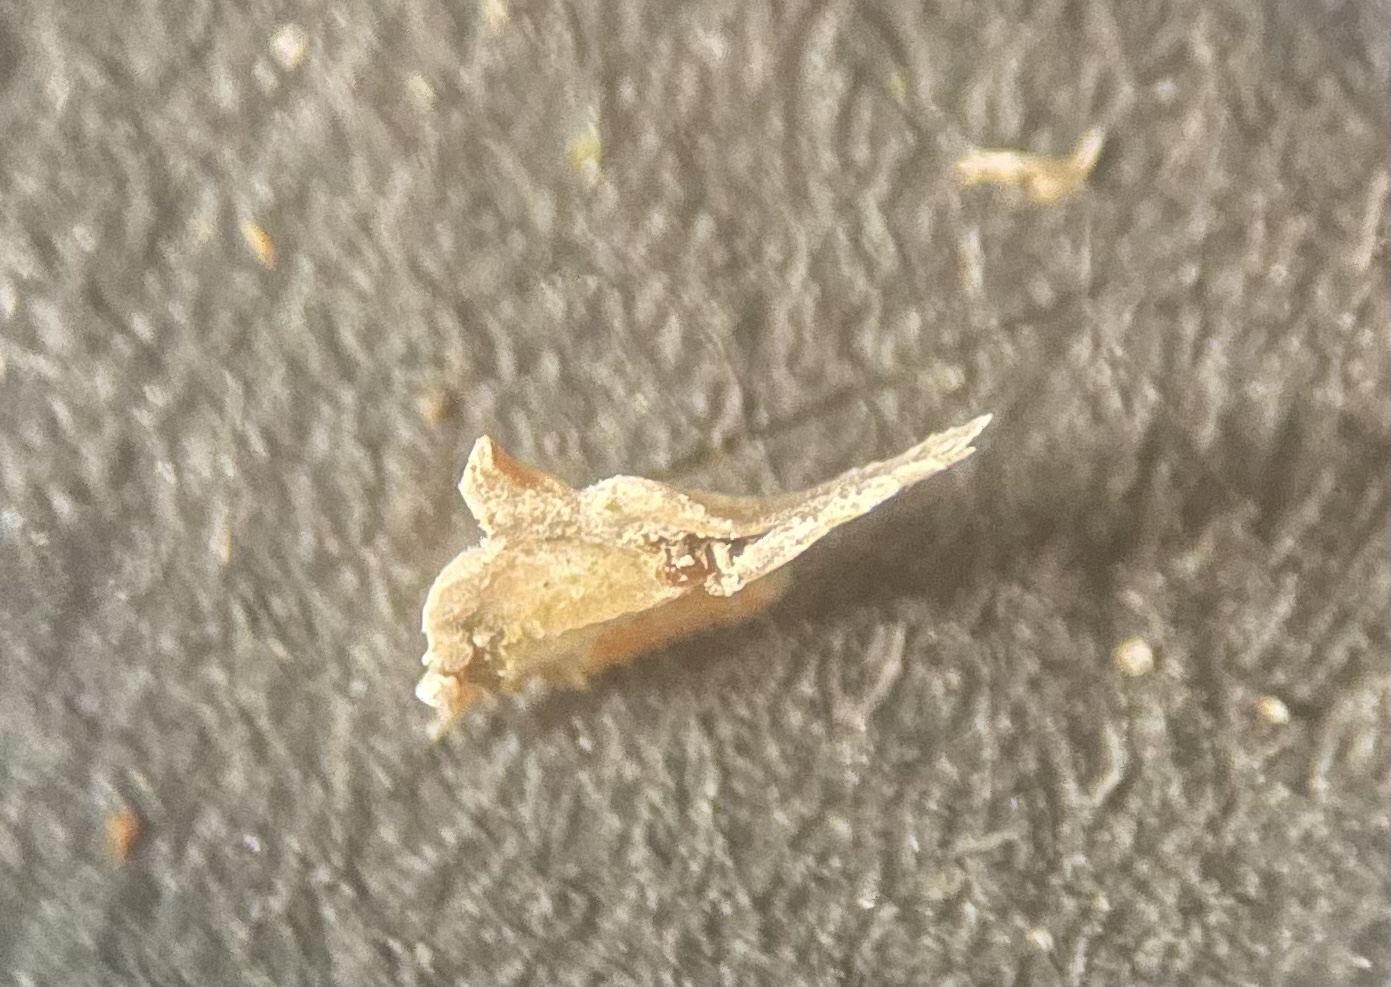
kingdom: Fungi
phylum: Basidiomycota
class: Agaricomycetes
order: Corticiales
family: Corticiaceae
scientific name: Corticiaceae
